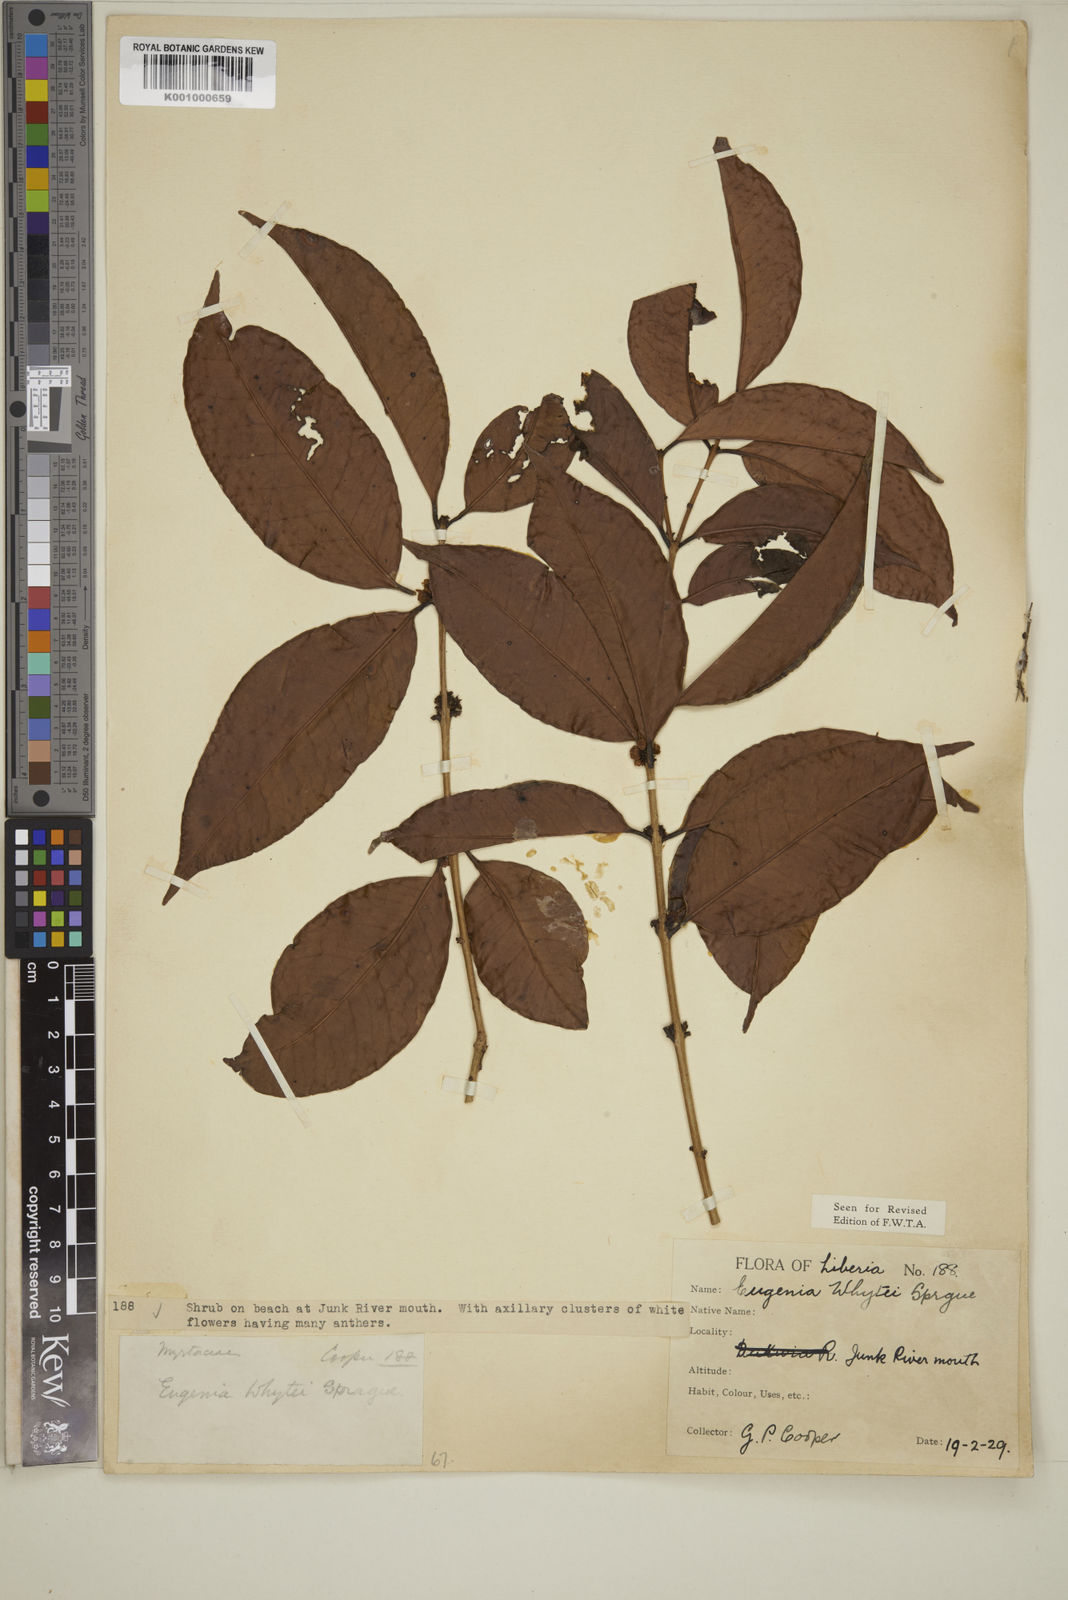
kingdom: Plantae
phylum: Tracheophyta
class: Magnoliopsida
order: Myrtales
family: Myrtaceae
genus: Eugenia
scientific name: Eugenia whytei
